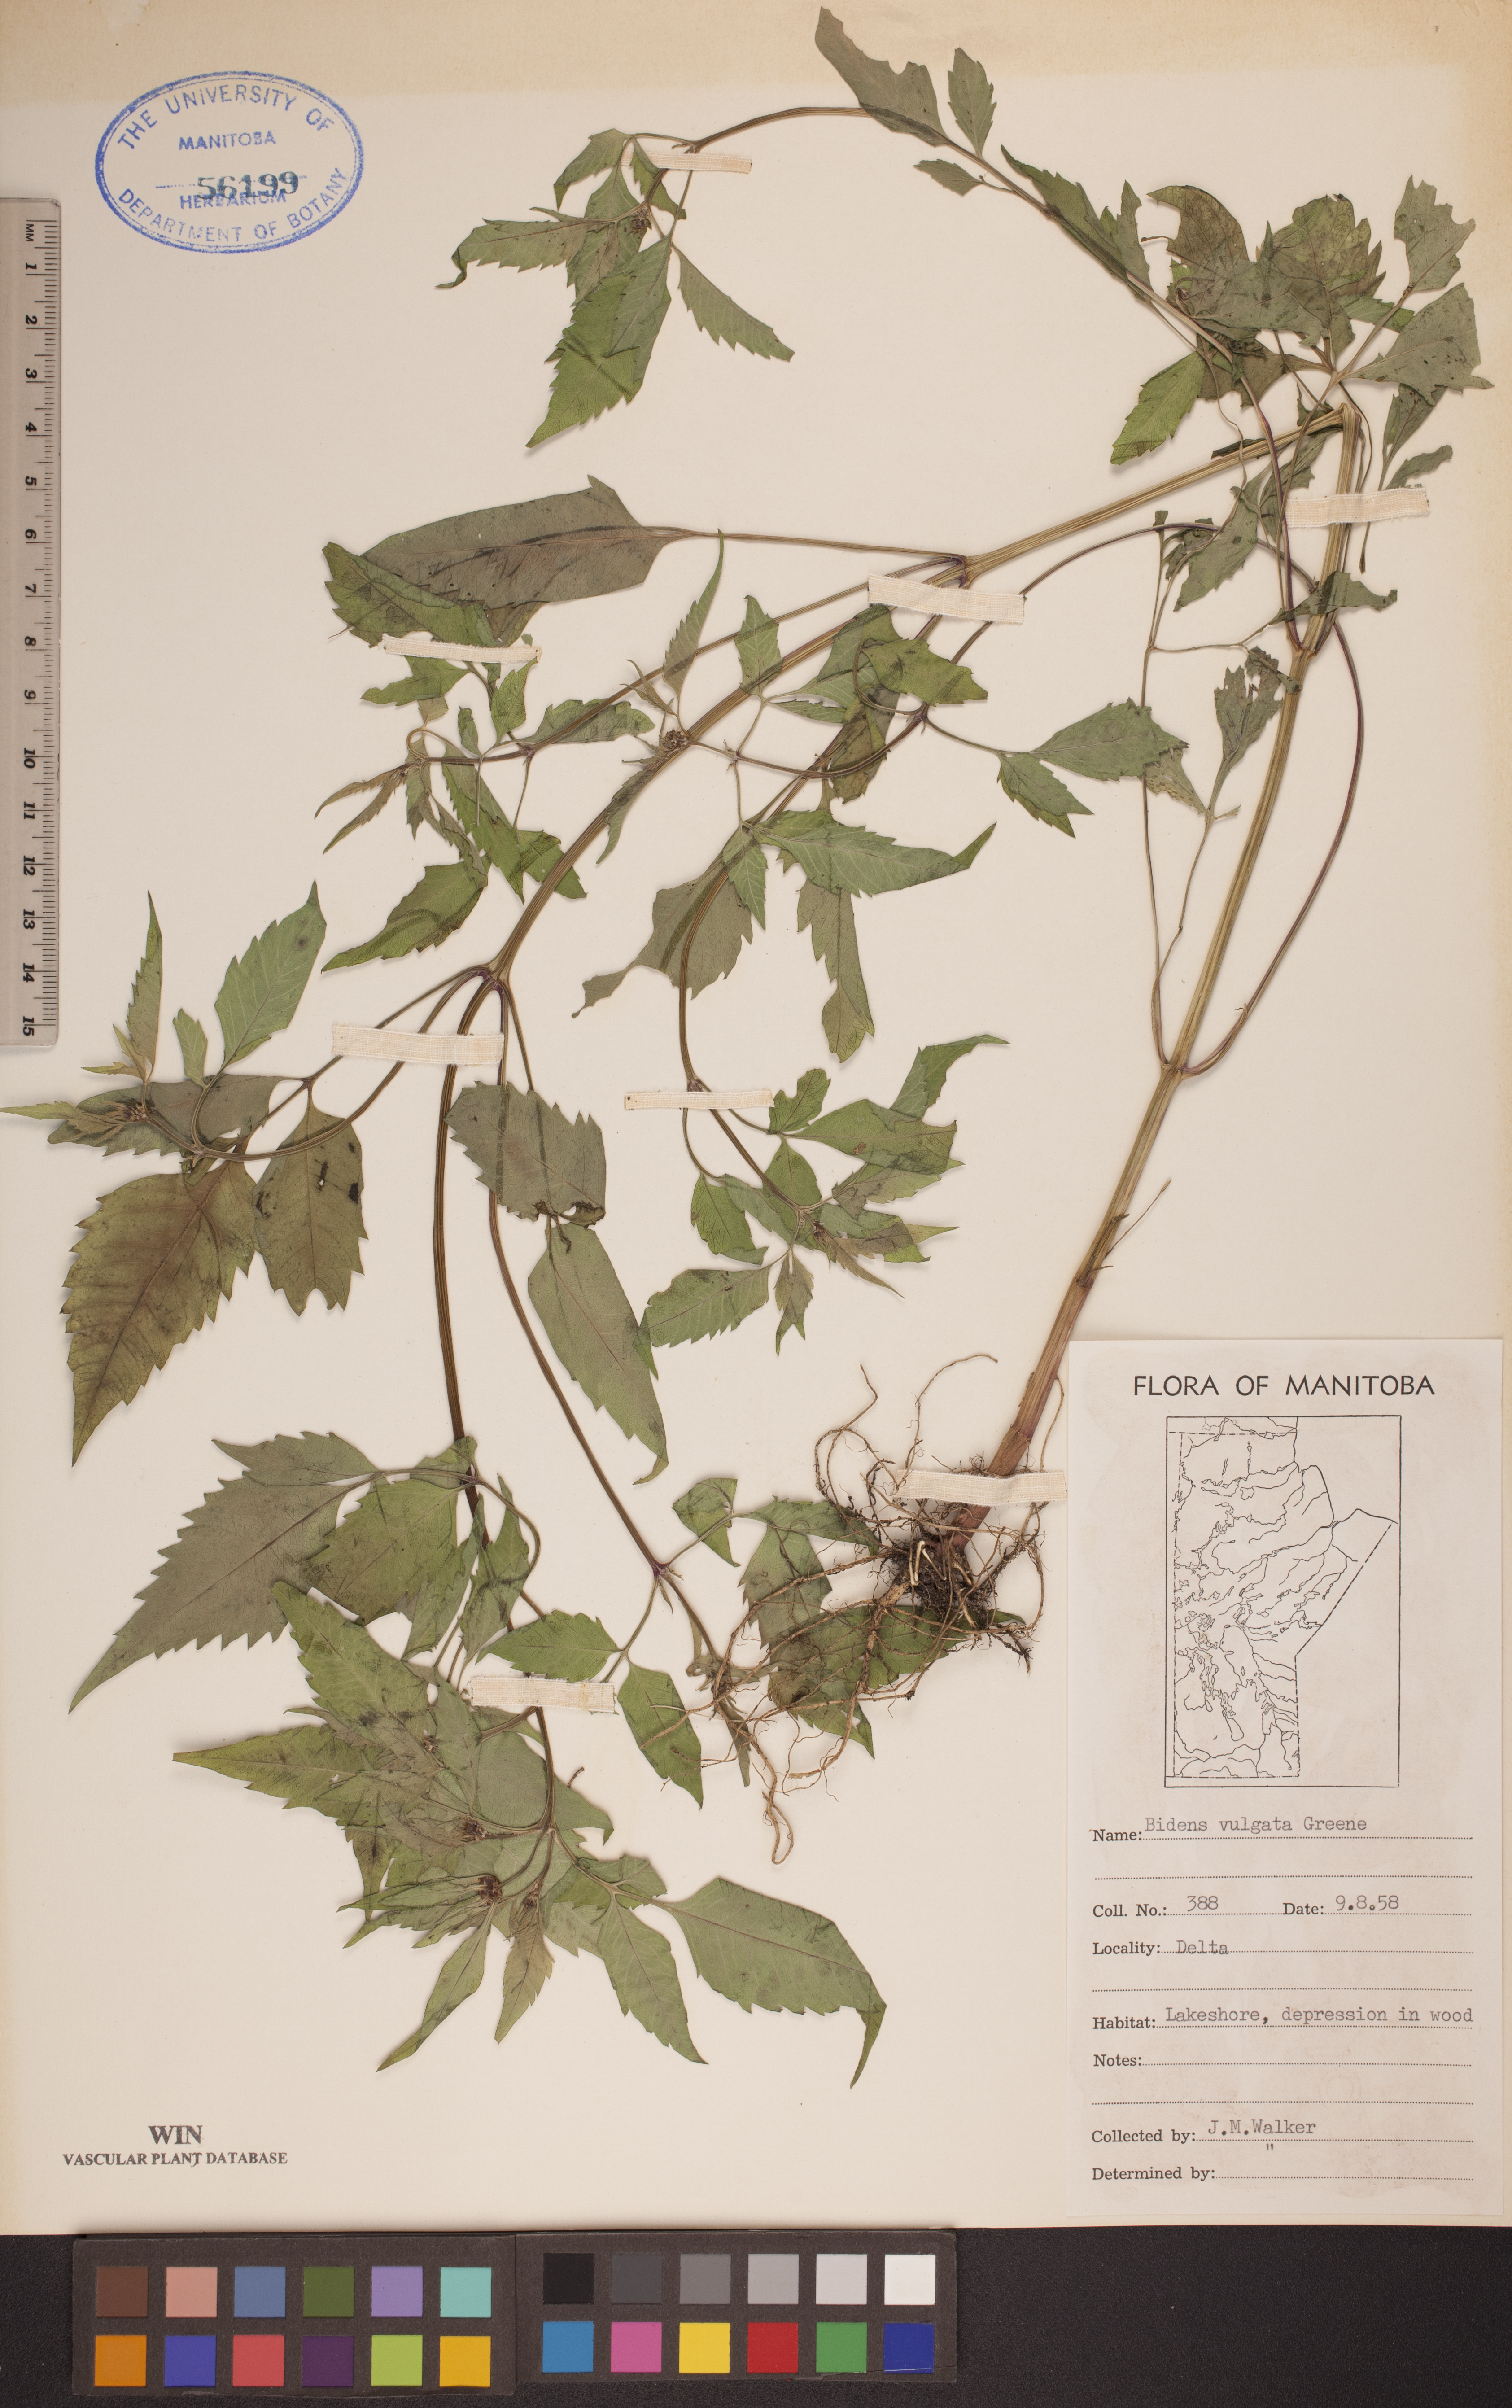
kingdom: Plantae
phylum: Tracheophyta
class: Magnoliopsida
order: Asterales
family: Asteraceae
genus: Bidens
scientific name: Bidens vulgata
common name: Tall beggarticks
